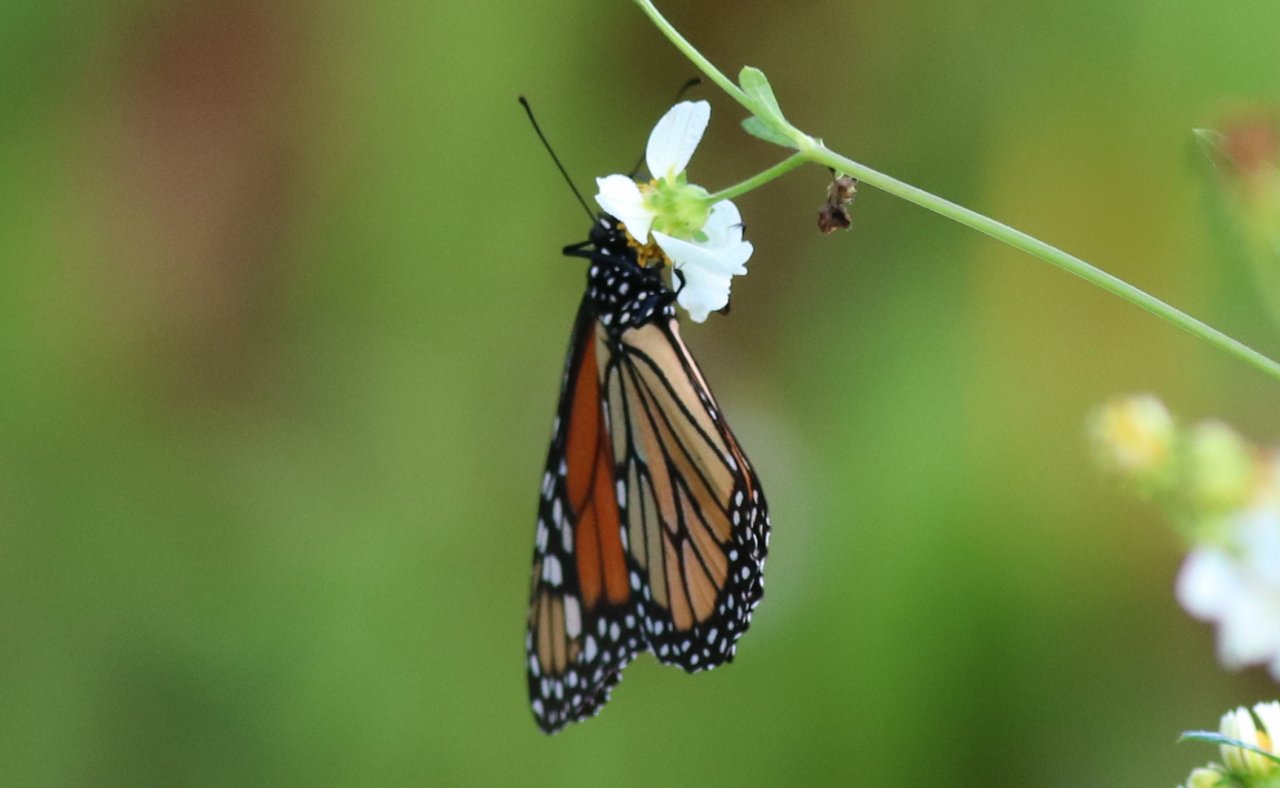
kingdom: Animalia
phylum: Arthropoda
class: Insecta
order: Lepidoptera
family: Nymphalidae
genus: Danaus
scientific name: Danaus plexippus
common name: Monarch
